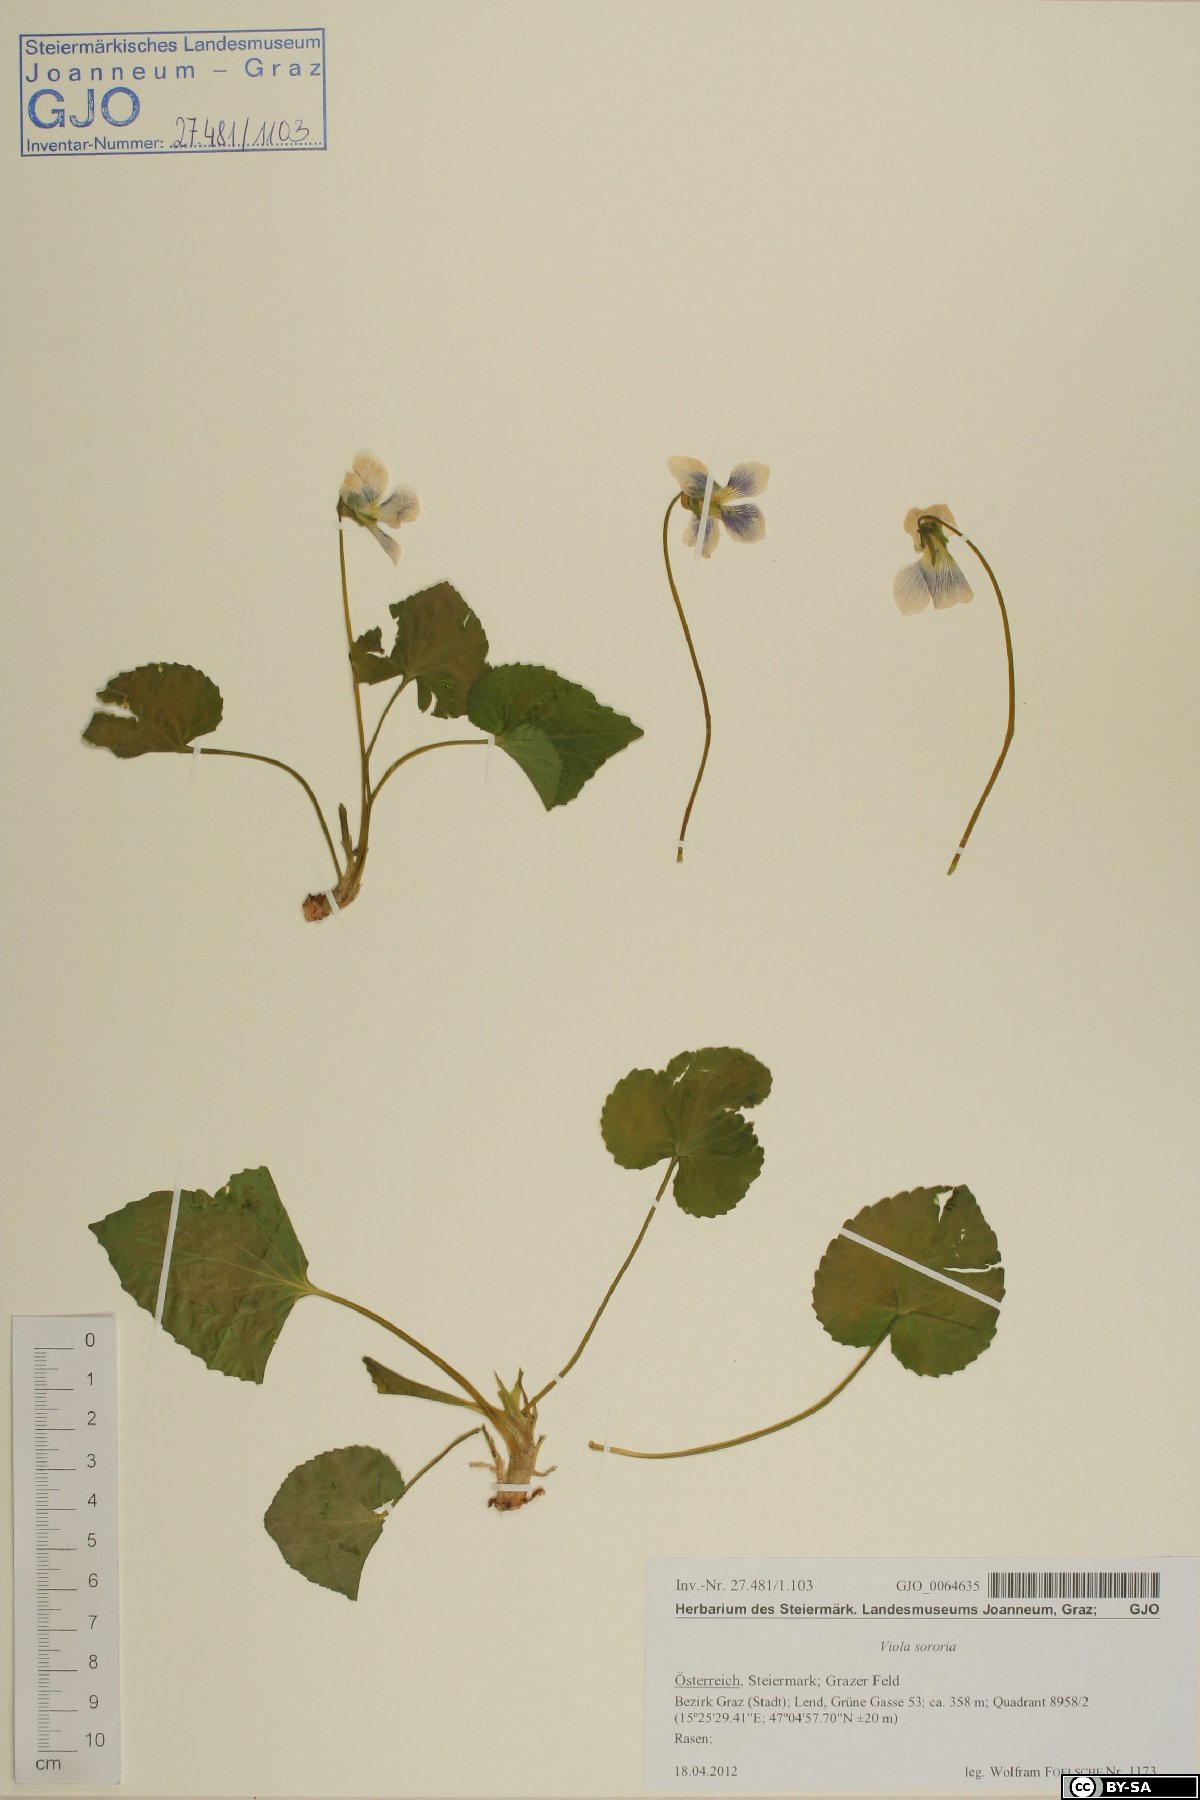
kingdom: Plantae
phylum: Tracheophyta
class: Magnoliopsida
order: Malpighiales
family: Violaceae
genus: Viola
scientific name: Viola sororia
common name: Dooryard violet
